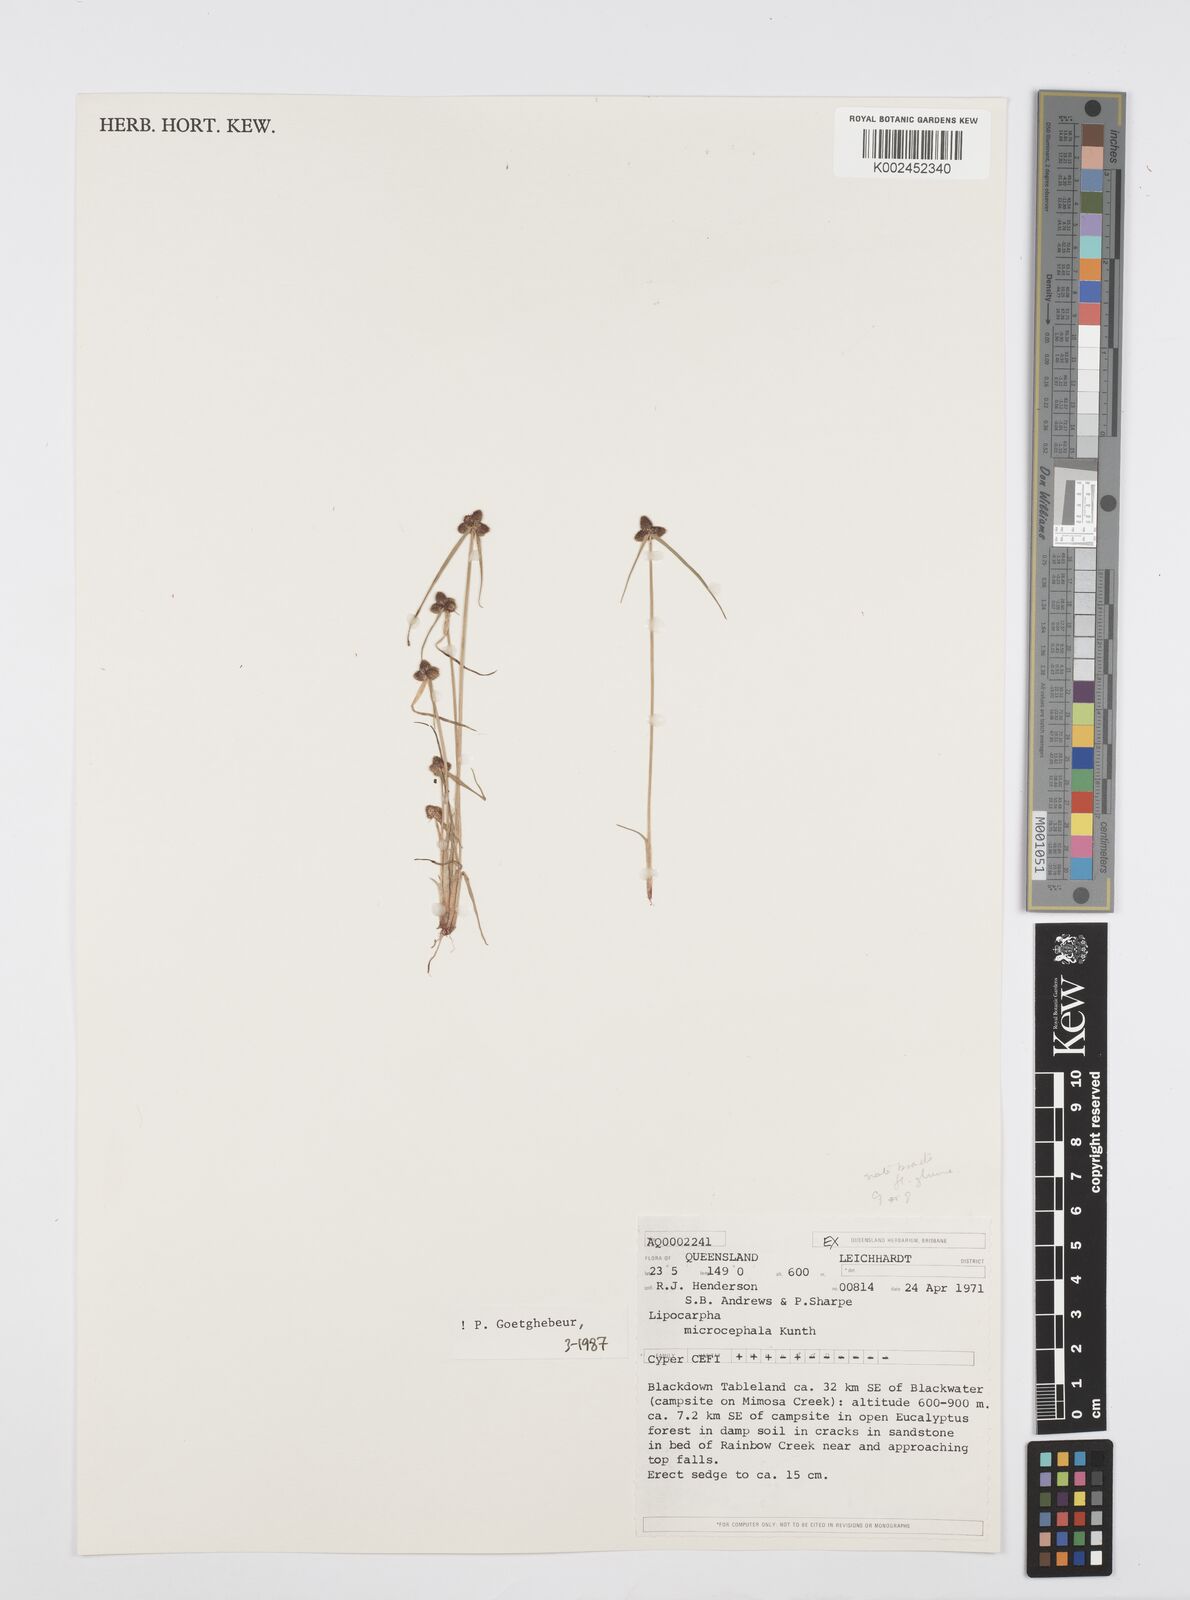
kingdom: Plantae
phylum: Tracheophyta
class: Liliopsida
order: Poales
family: Cyperaceae
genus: Cyperus
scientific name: Cyperus microcephalus
